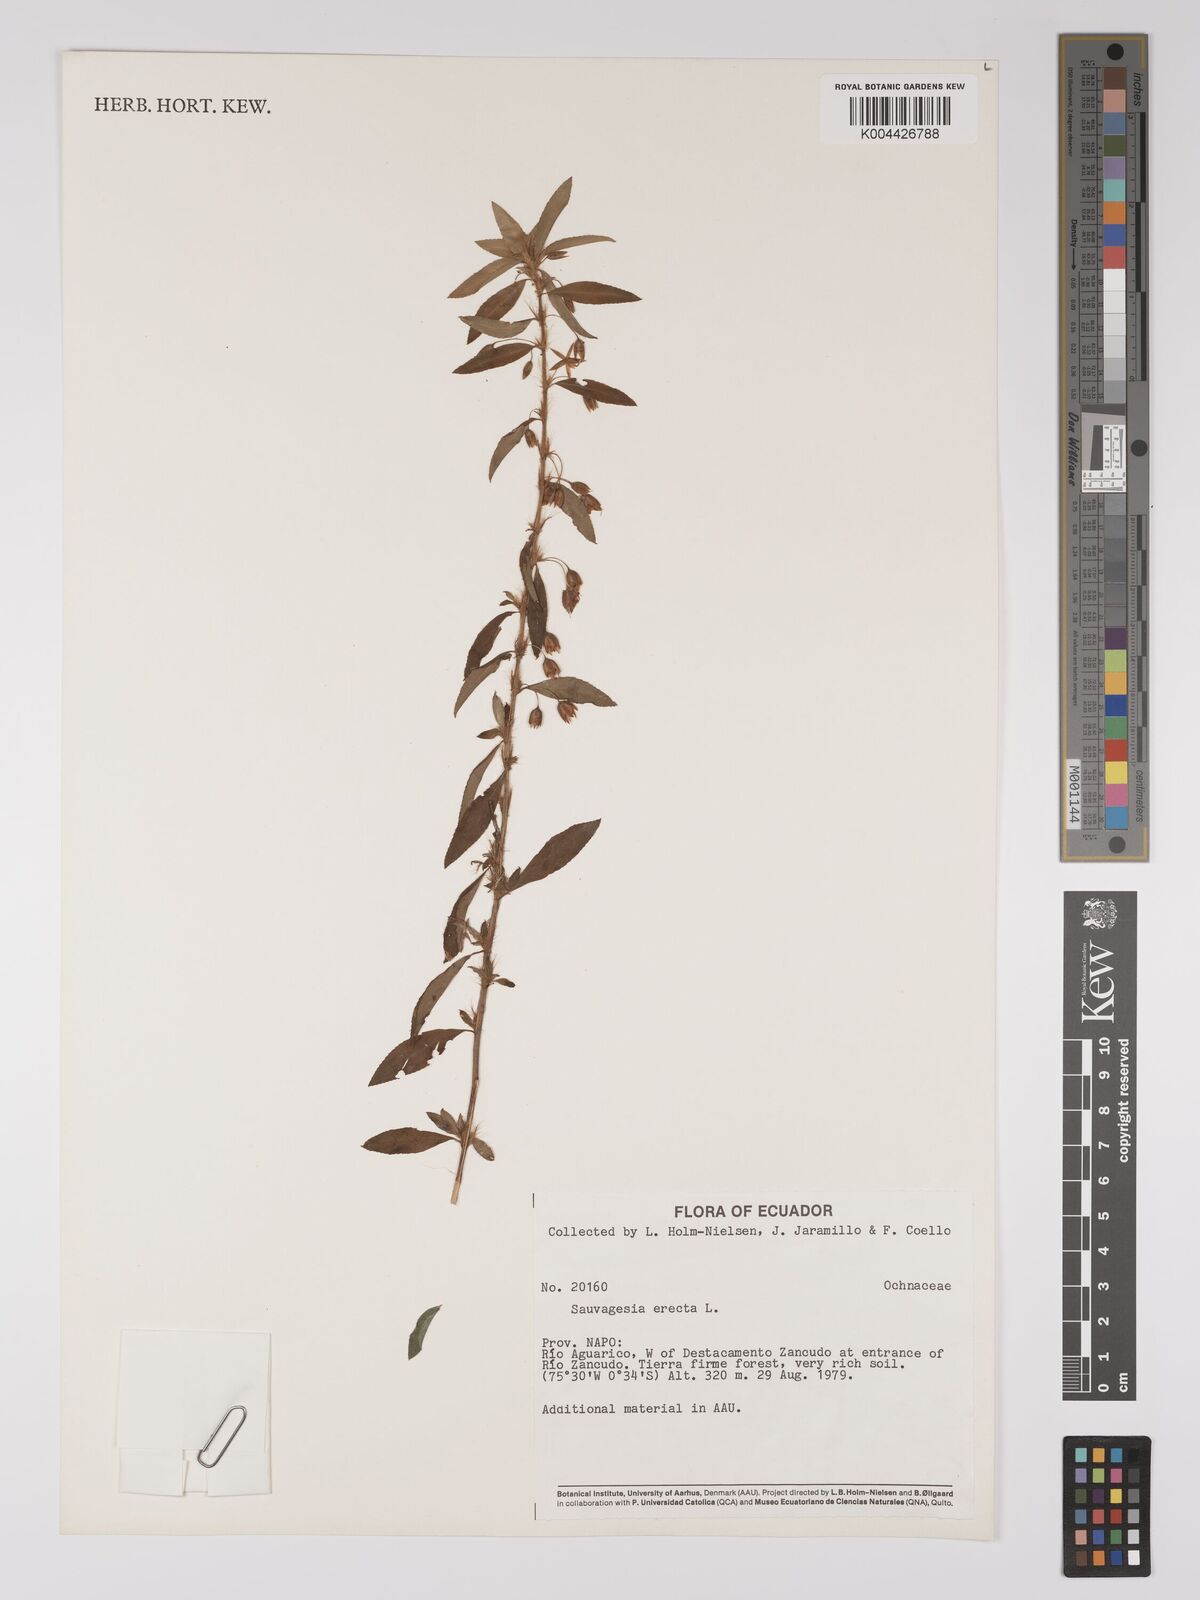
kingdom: Plantae
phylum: Tracheophyta
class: Magnoliopsida
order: Malpighiales
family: Ochnaceae
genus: Sauvagesia
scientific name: Sauvagesia erecta
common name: Creole tea
